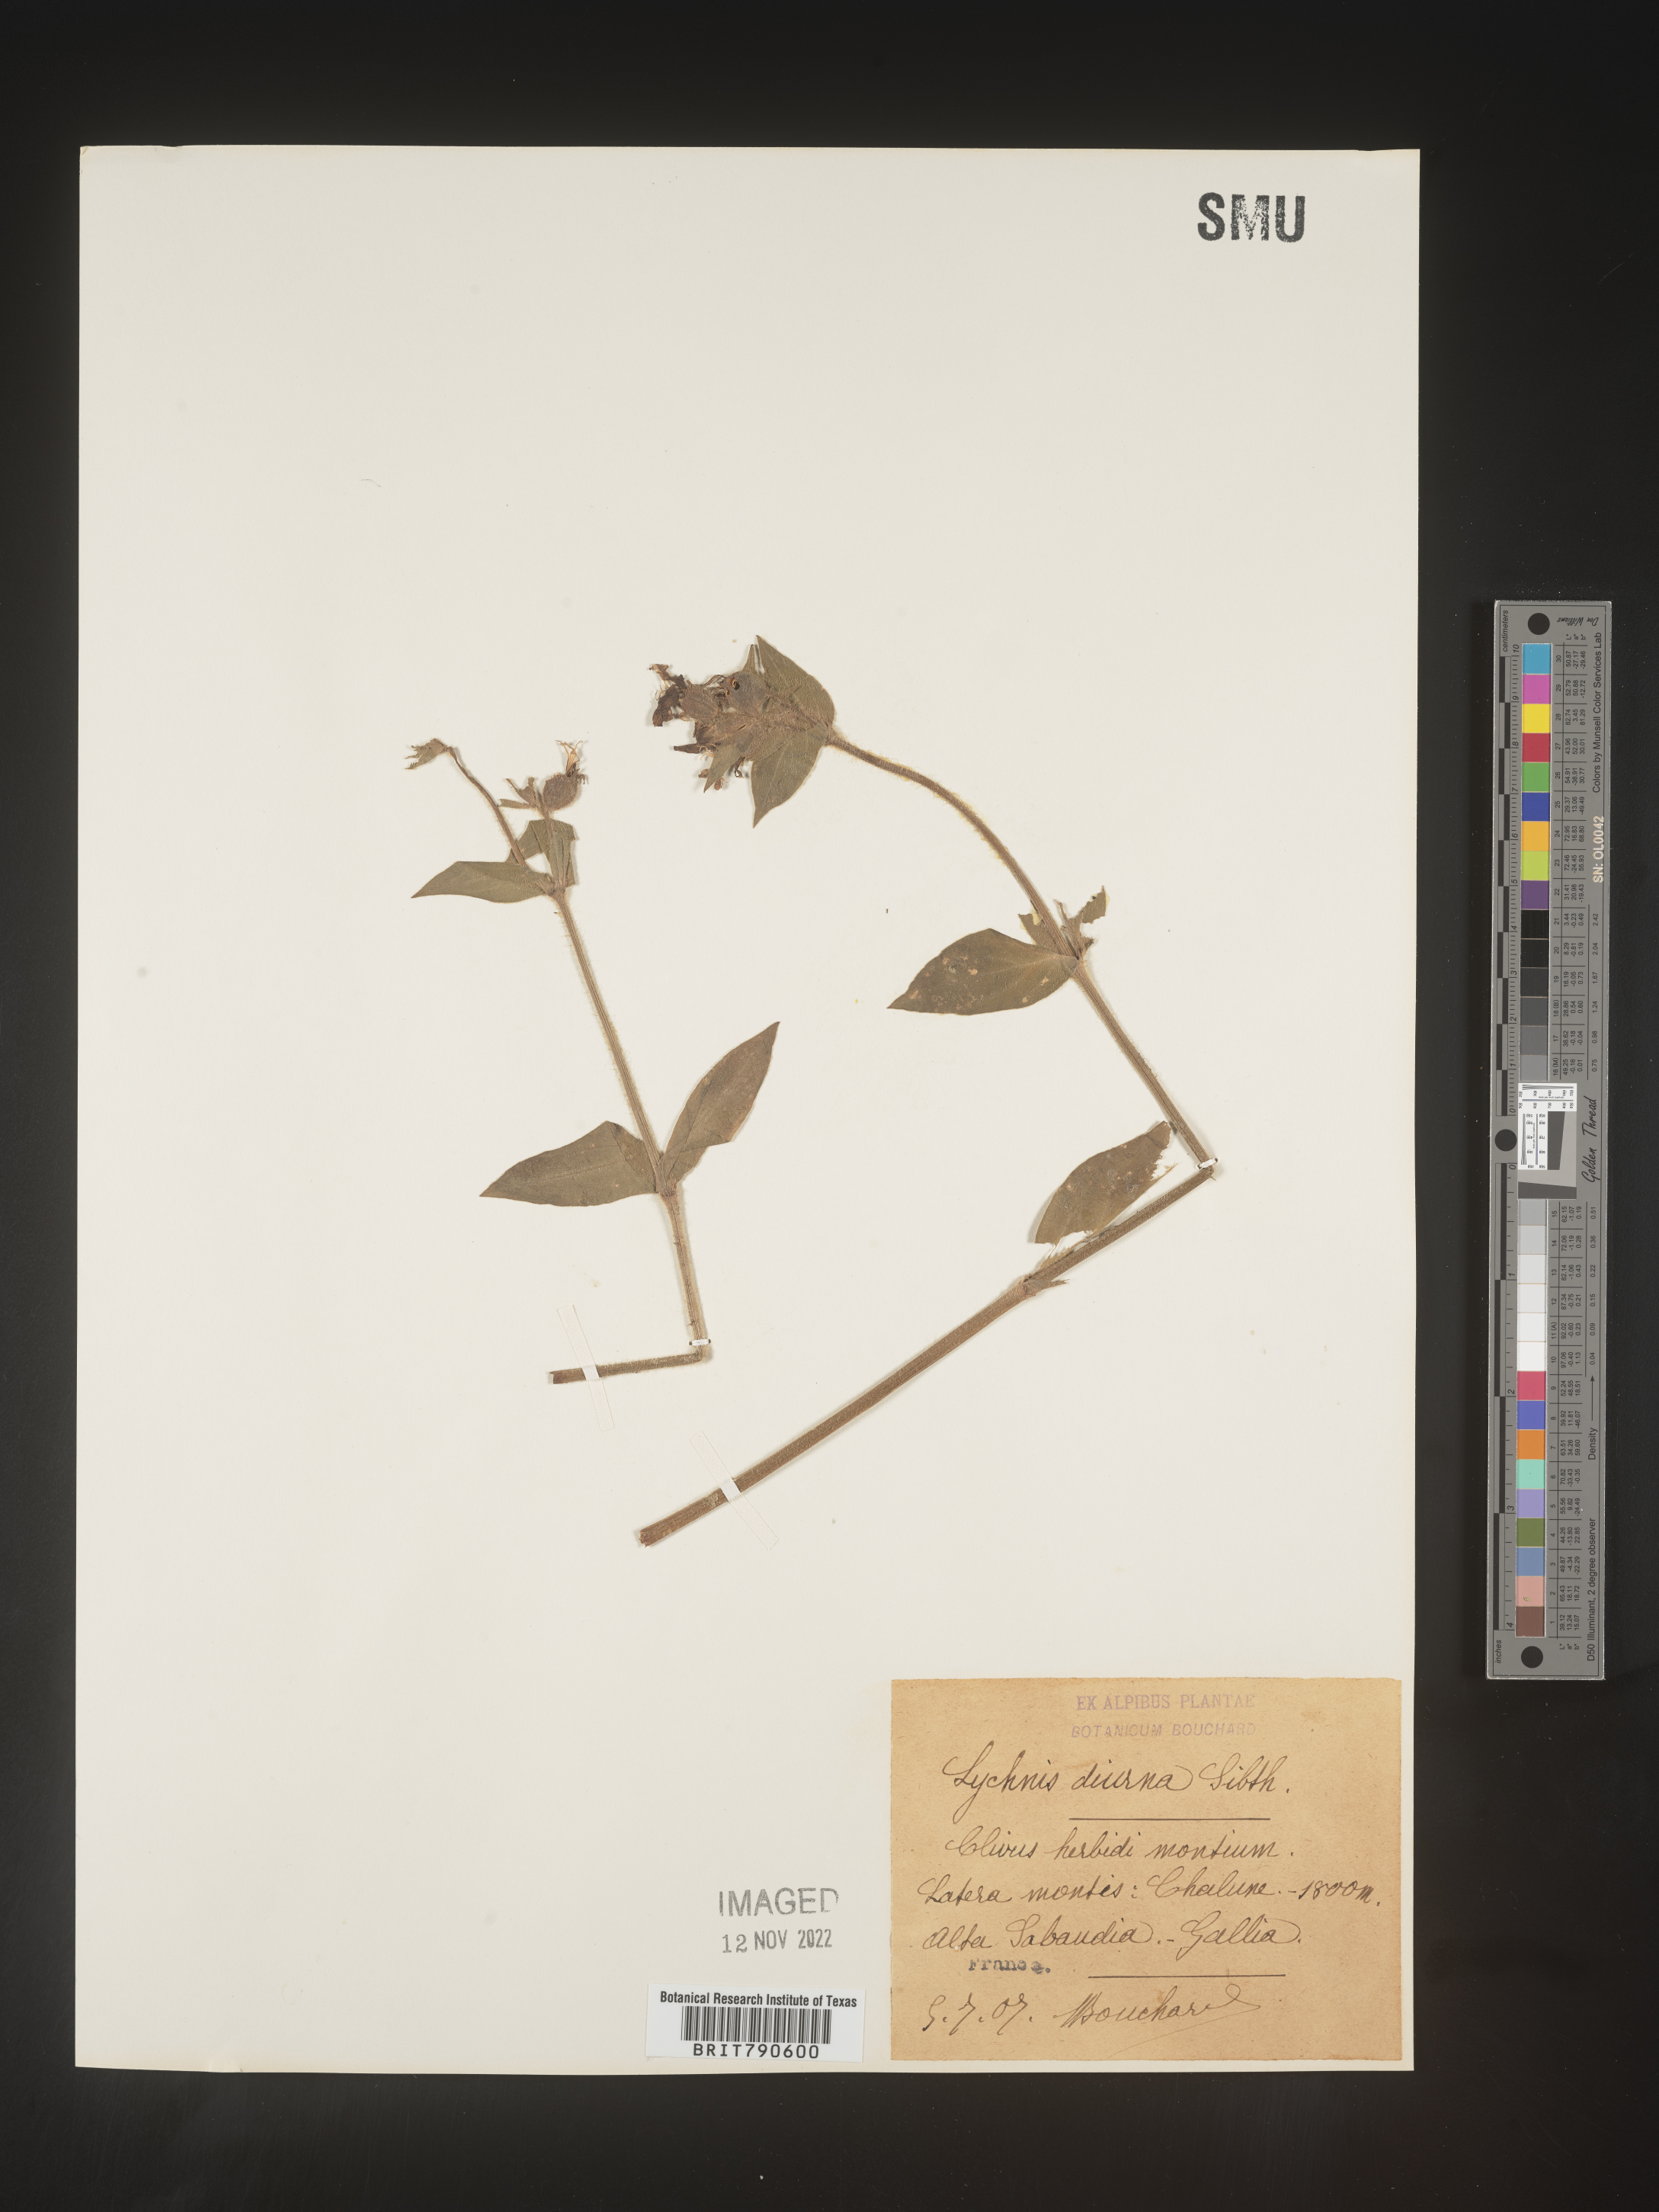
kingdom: Plantae
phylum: Tracheophyta
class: Magnoliopsida
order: Caryophyllales
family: Caryophyllaceae
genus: Silene
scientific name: Silene
